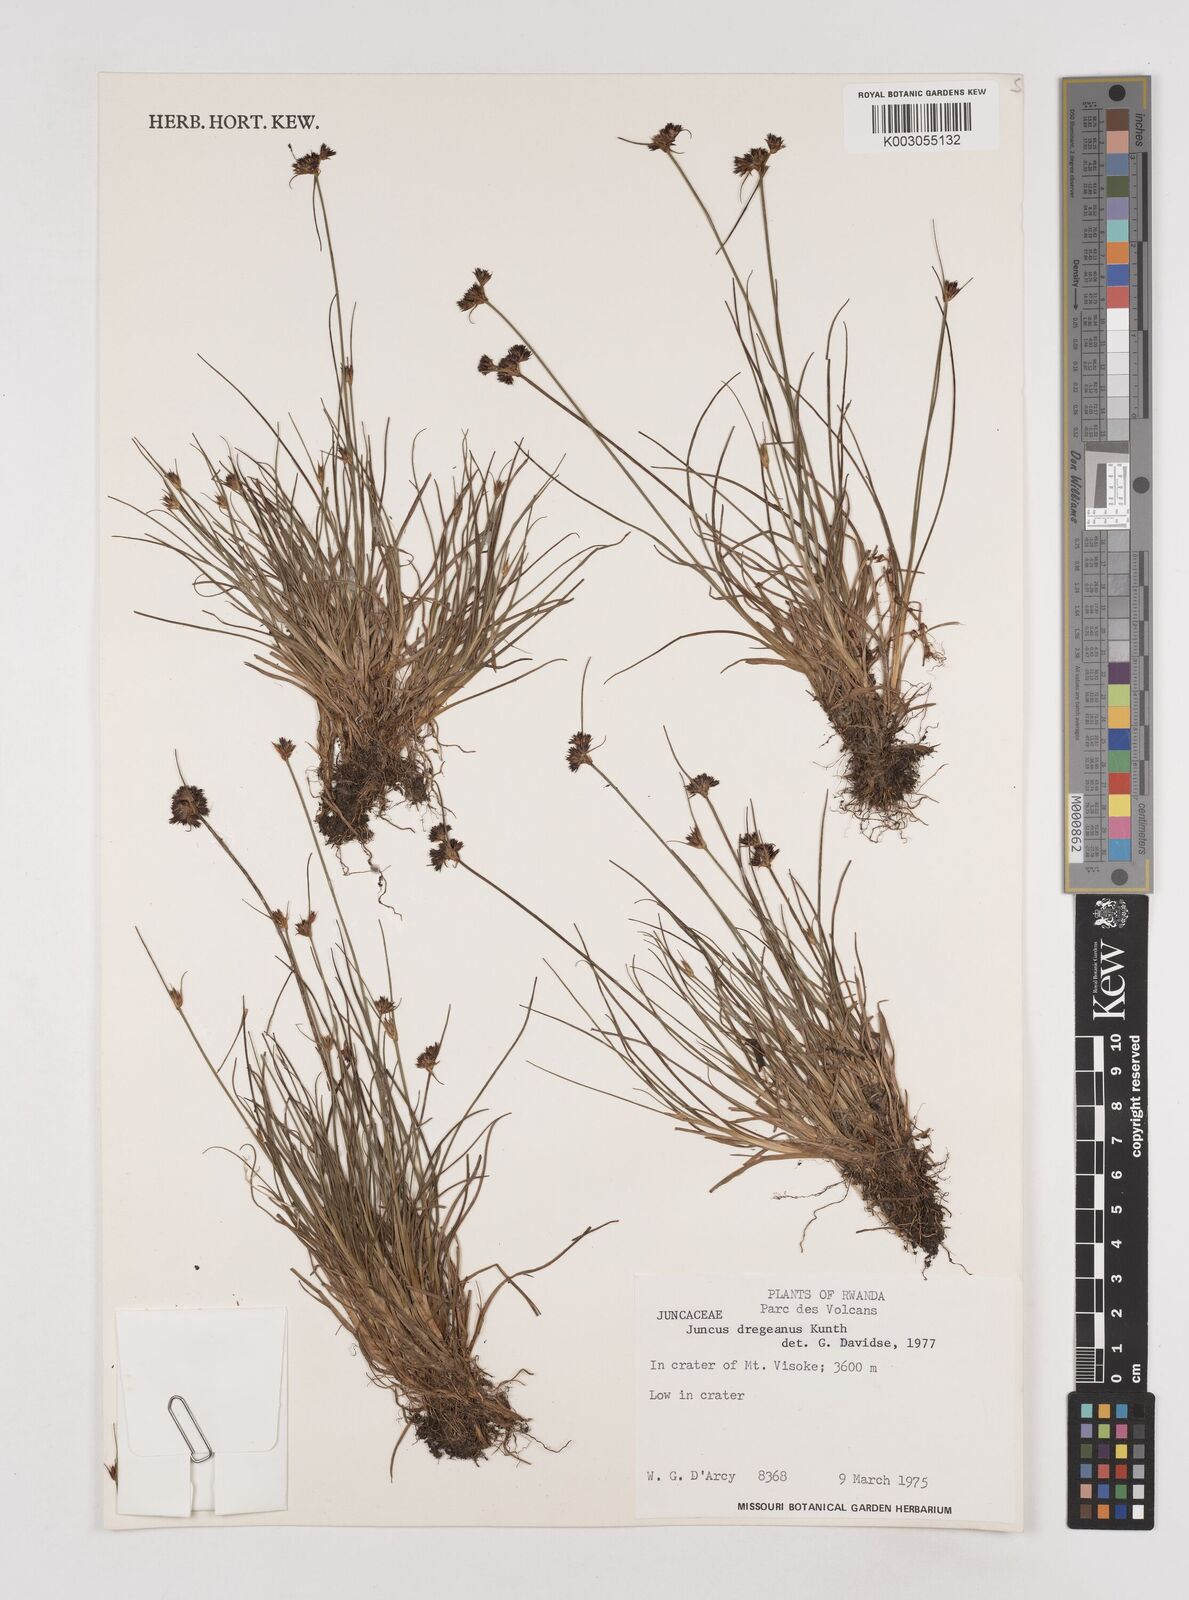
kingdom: Plantae
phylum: Tracheophyta
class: Liliopsida
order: Poales
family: Juncaceae
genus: Juncus
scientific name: Juncus dregeanus
